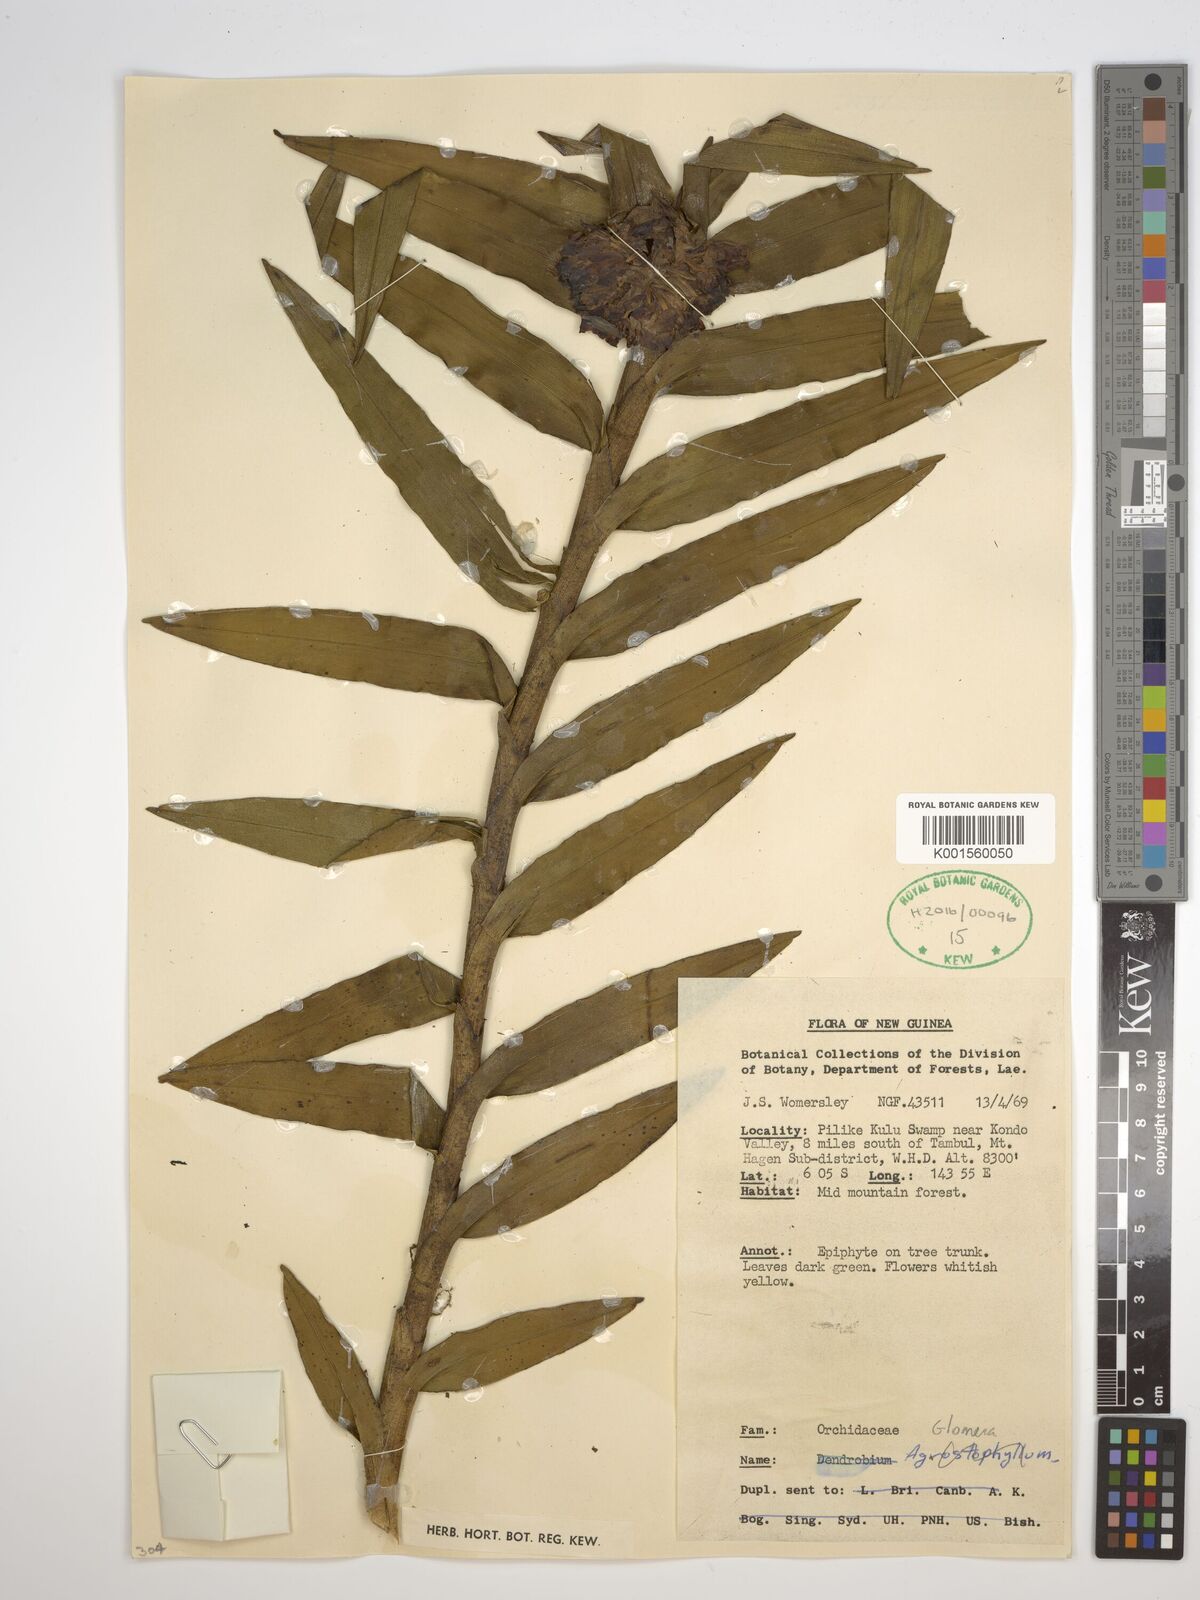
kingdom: Plantae
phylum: Tracheophyta
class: Liliopsida
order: Asparagales
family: Orchidaceae
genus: Glomera
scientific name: Glomera
